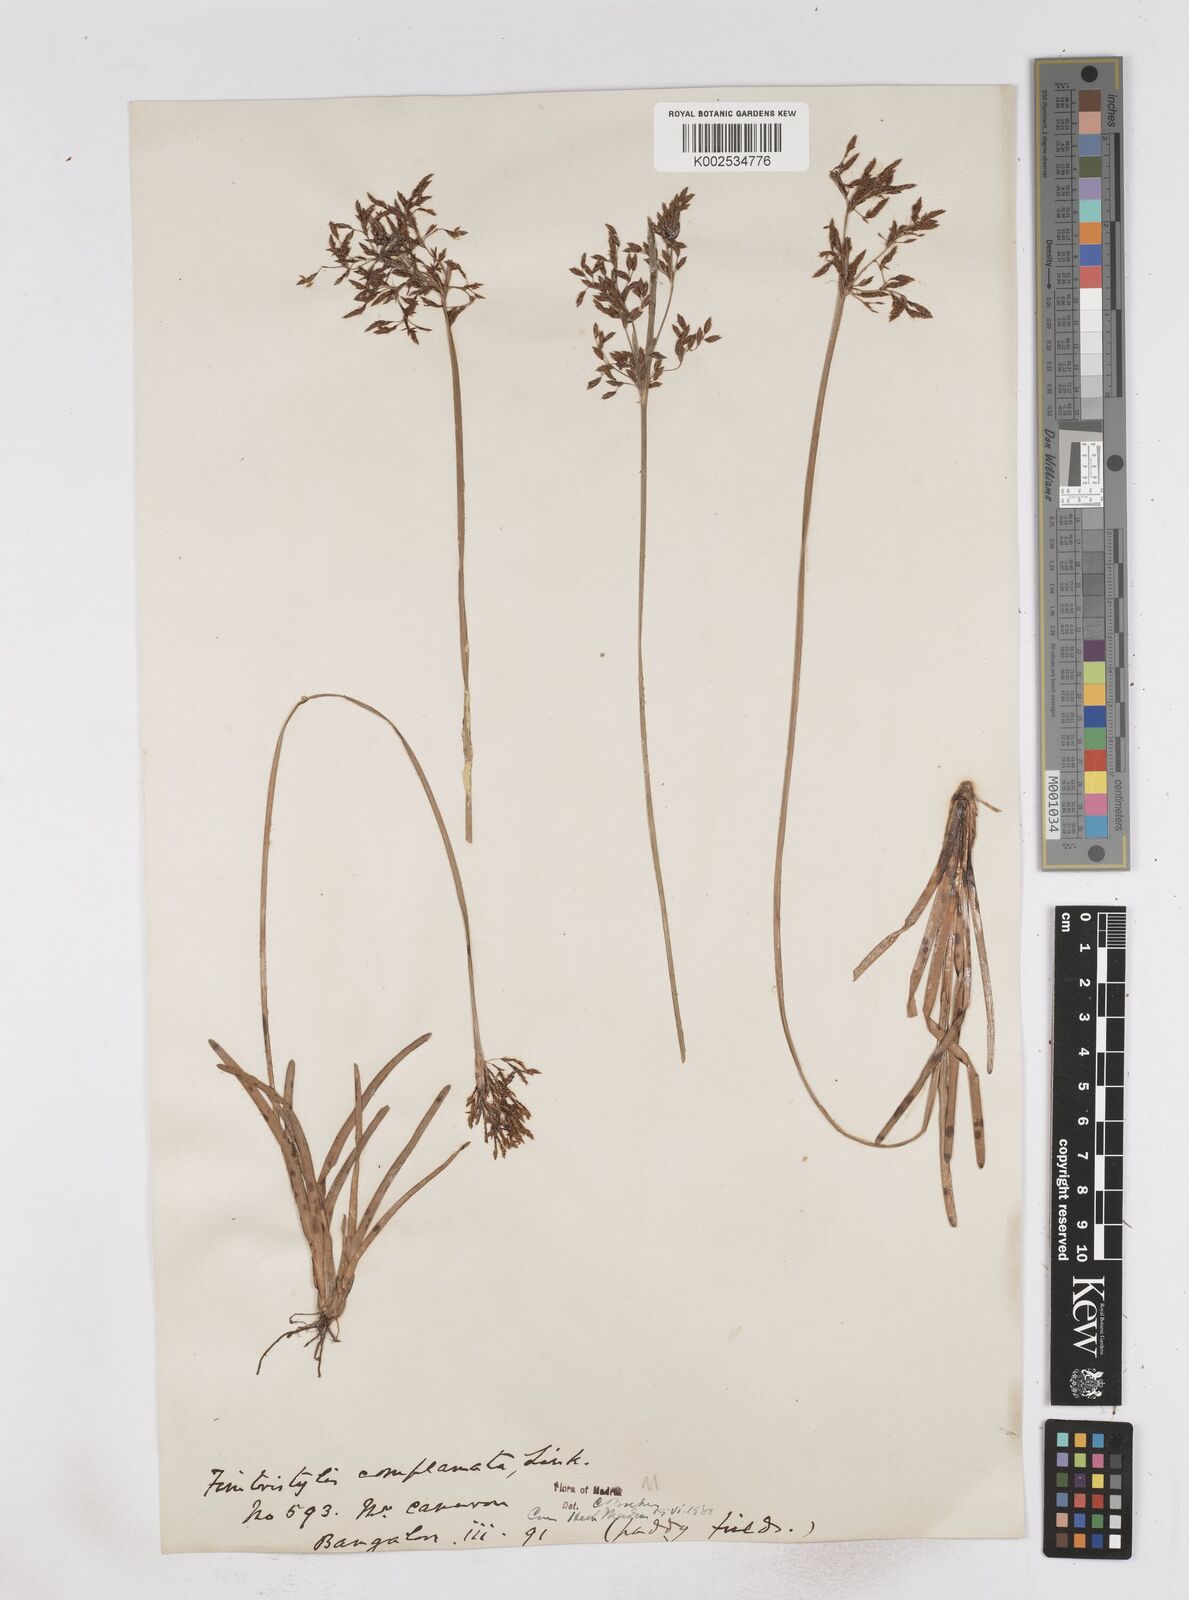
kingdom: Plantae
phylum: Tracheophyta
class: Liliopsida
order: Poales
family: Cyperaceae
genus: Fimbristylis
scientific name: Fimbristylis complanata
